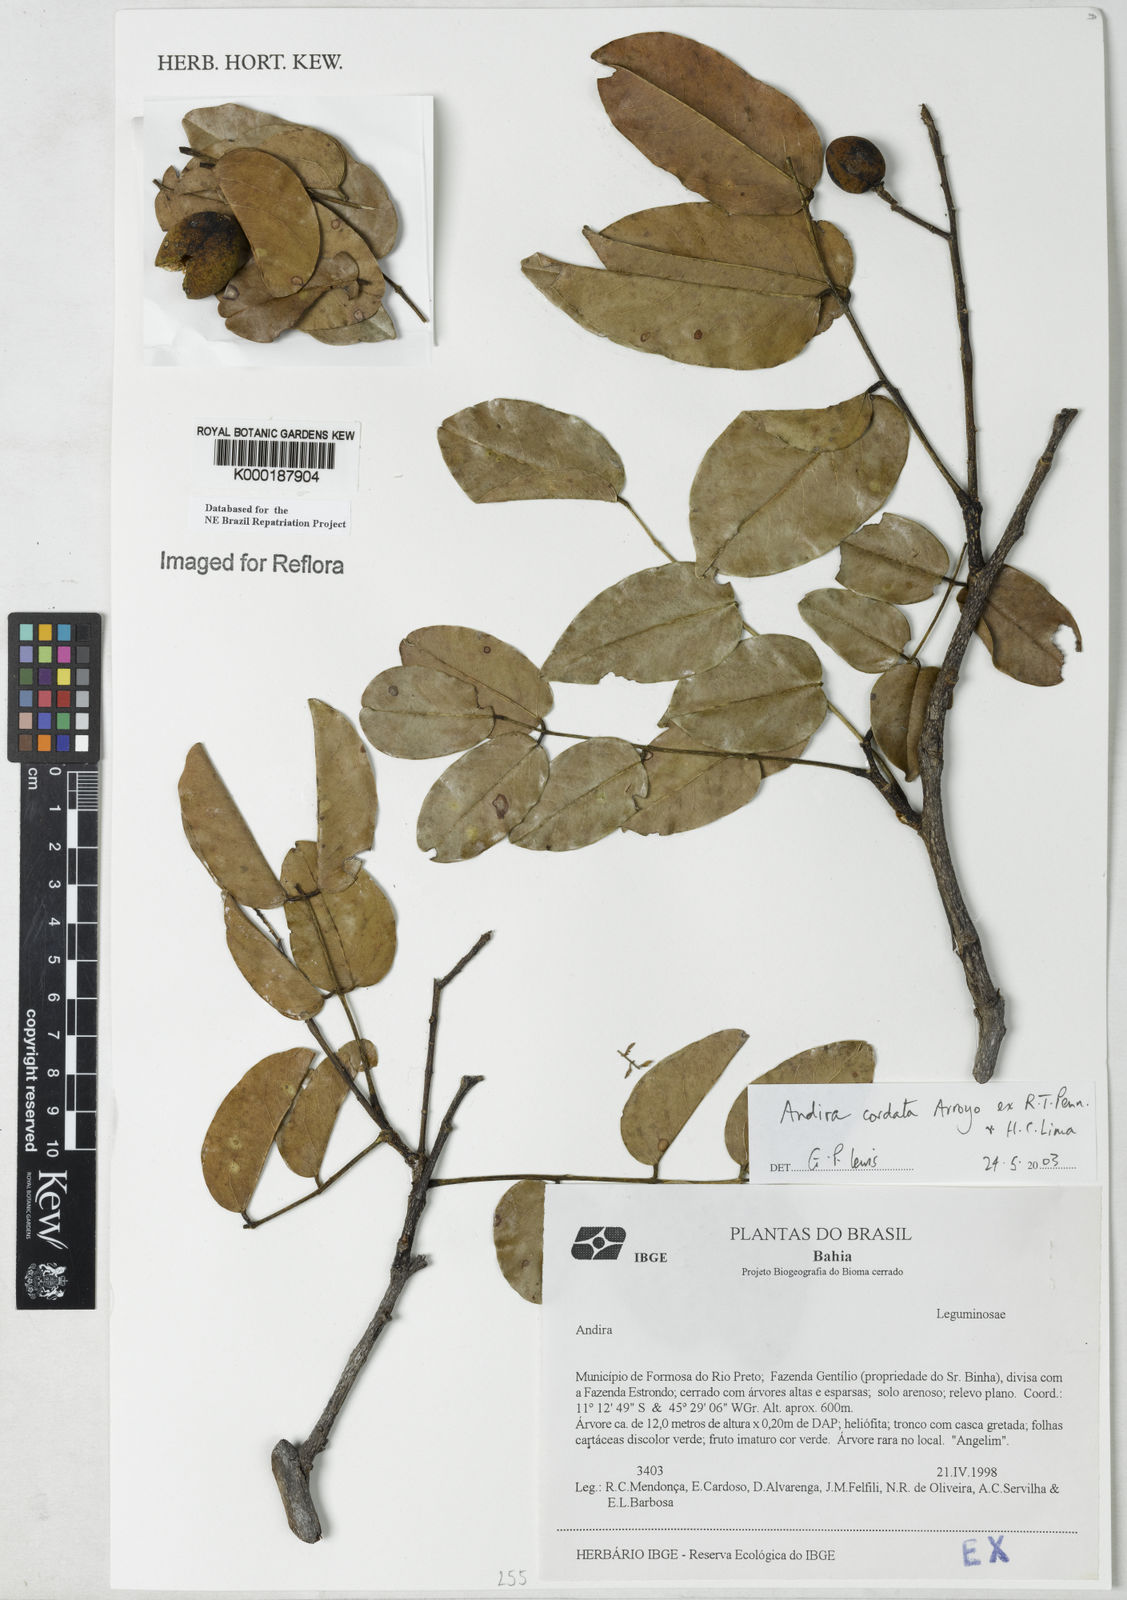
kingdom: Plantae
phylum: Tracheophyta
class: Magnoliopsida
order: Fabales
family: Fabaceae
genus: Andira
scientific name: Andira cordata
